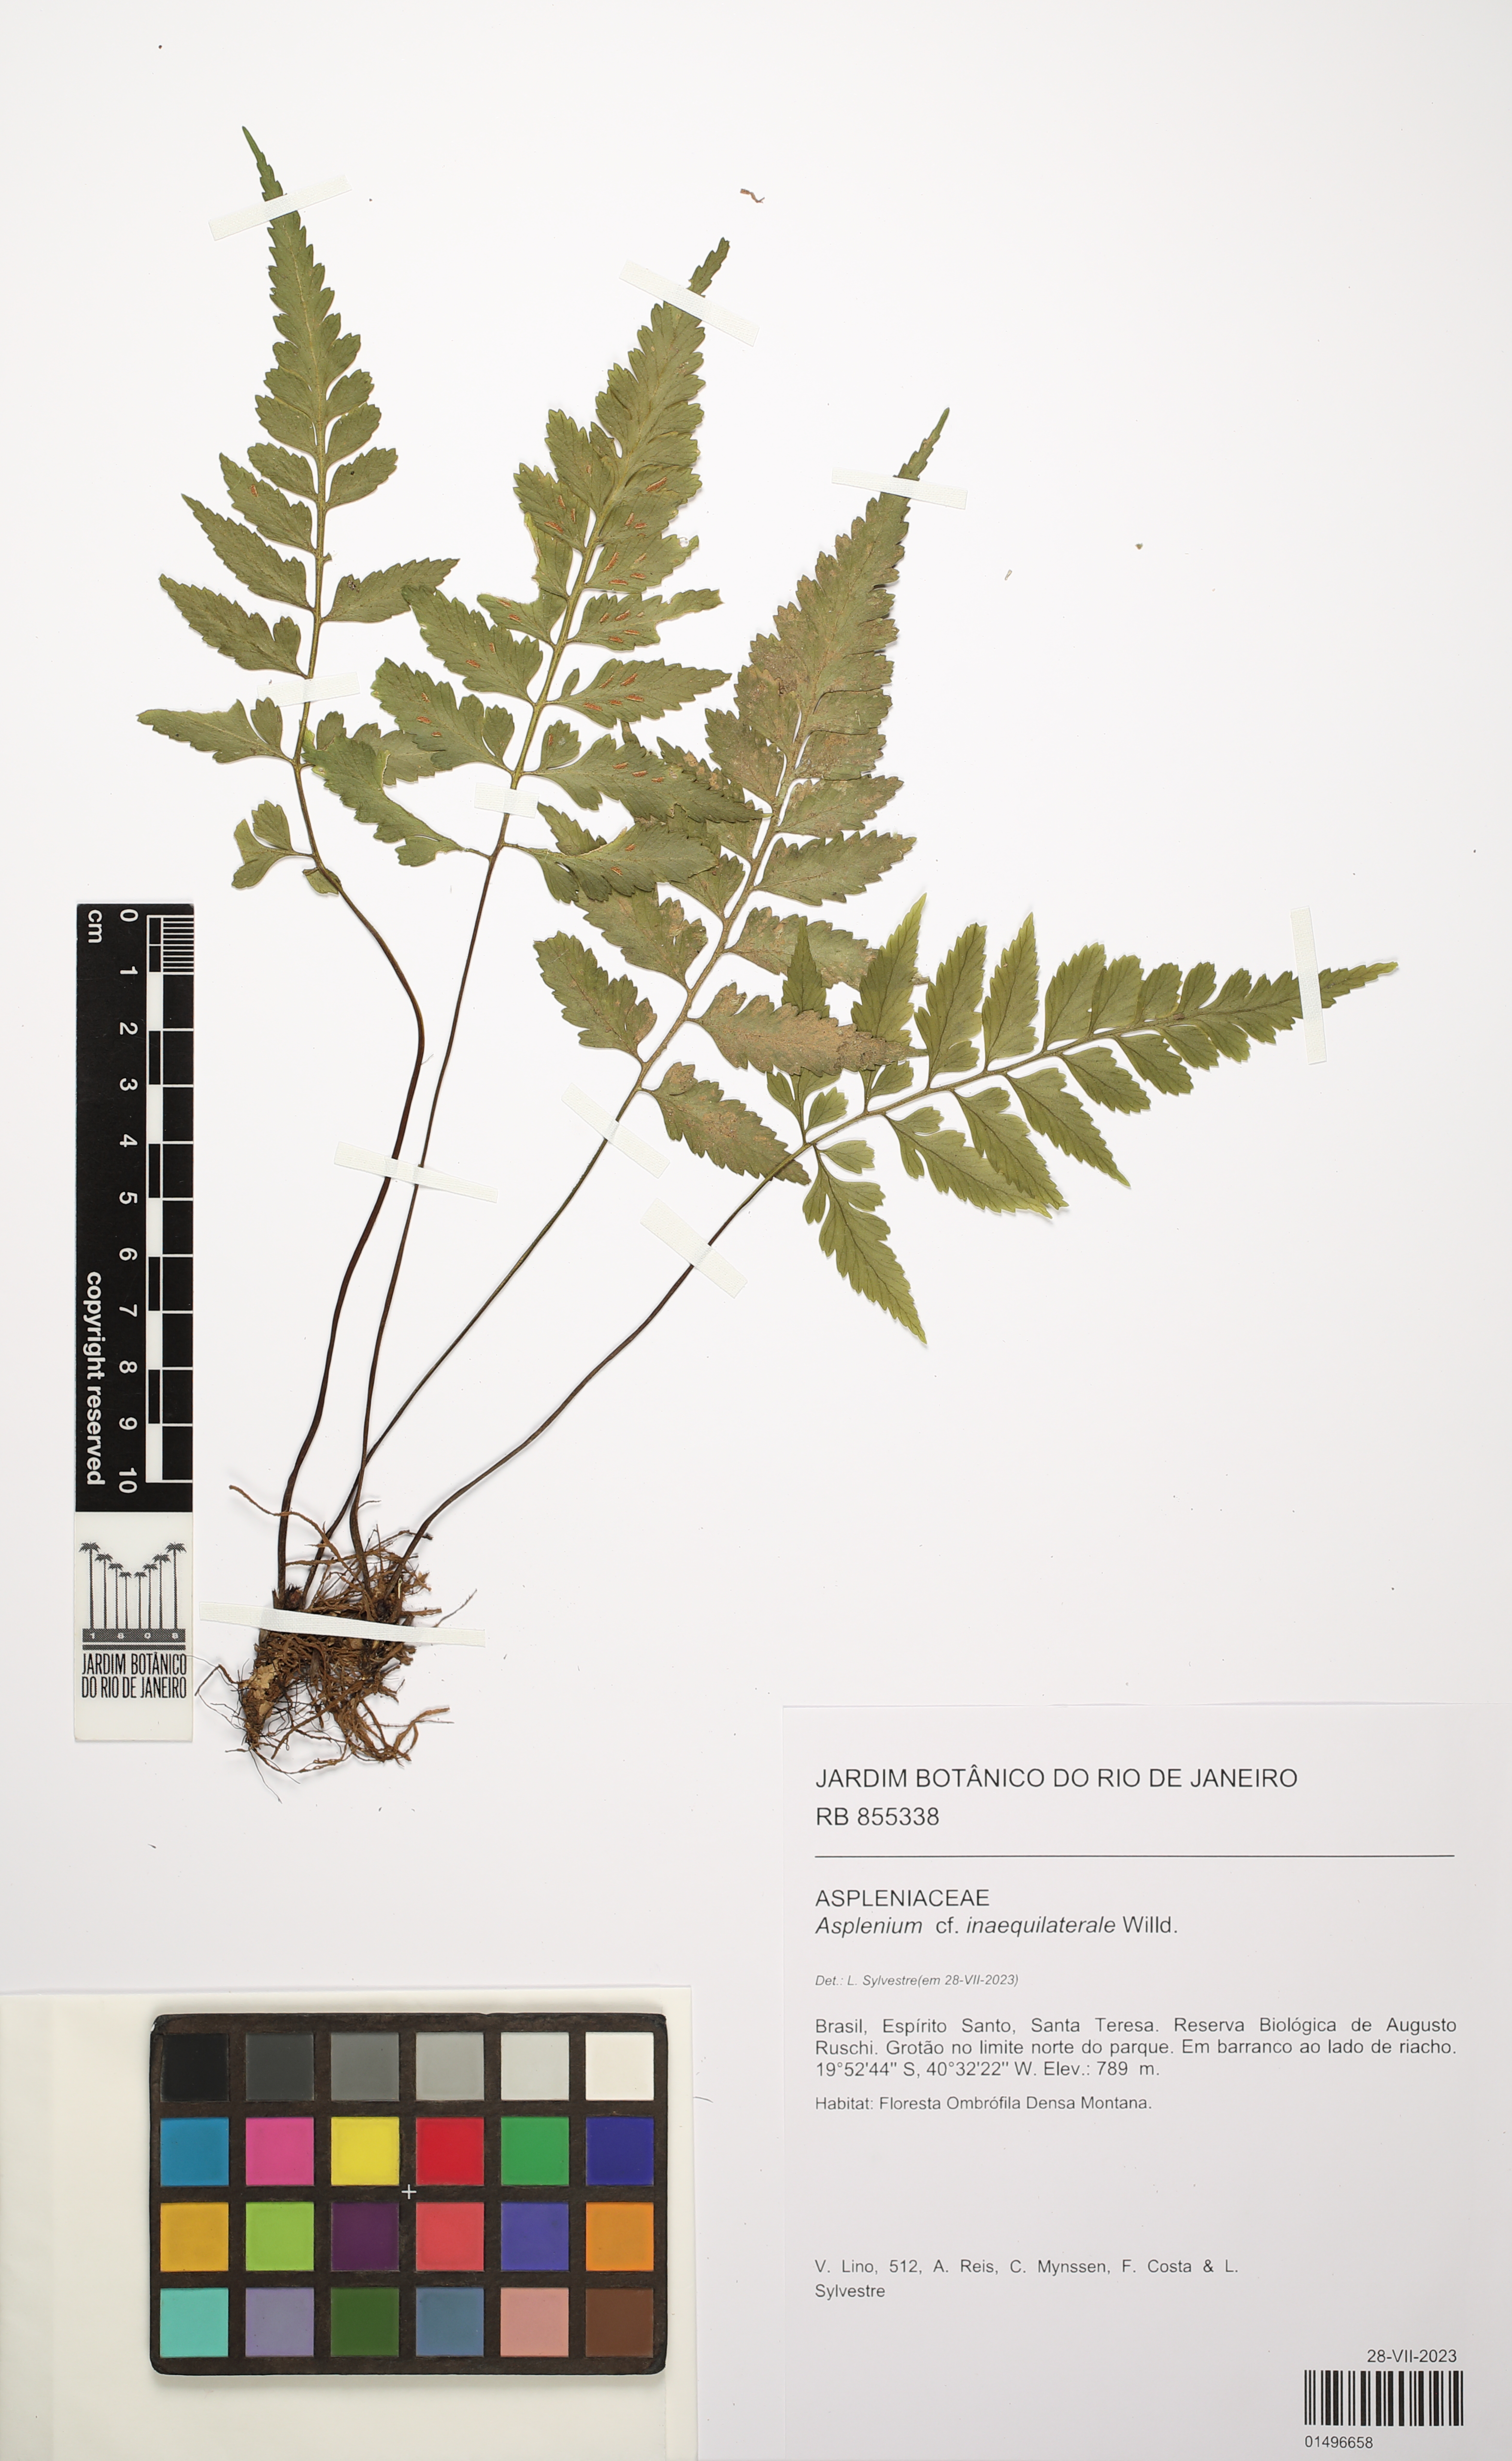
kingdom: Plantae
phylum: Tracheophyta
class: Polypodiopsida
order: Polypodiales
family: Aspleniaceae
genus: Asplenium
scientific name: Asplenium inaequilaterale
